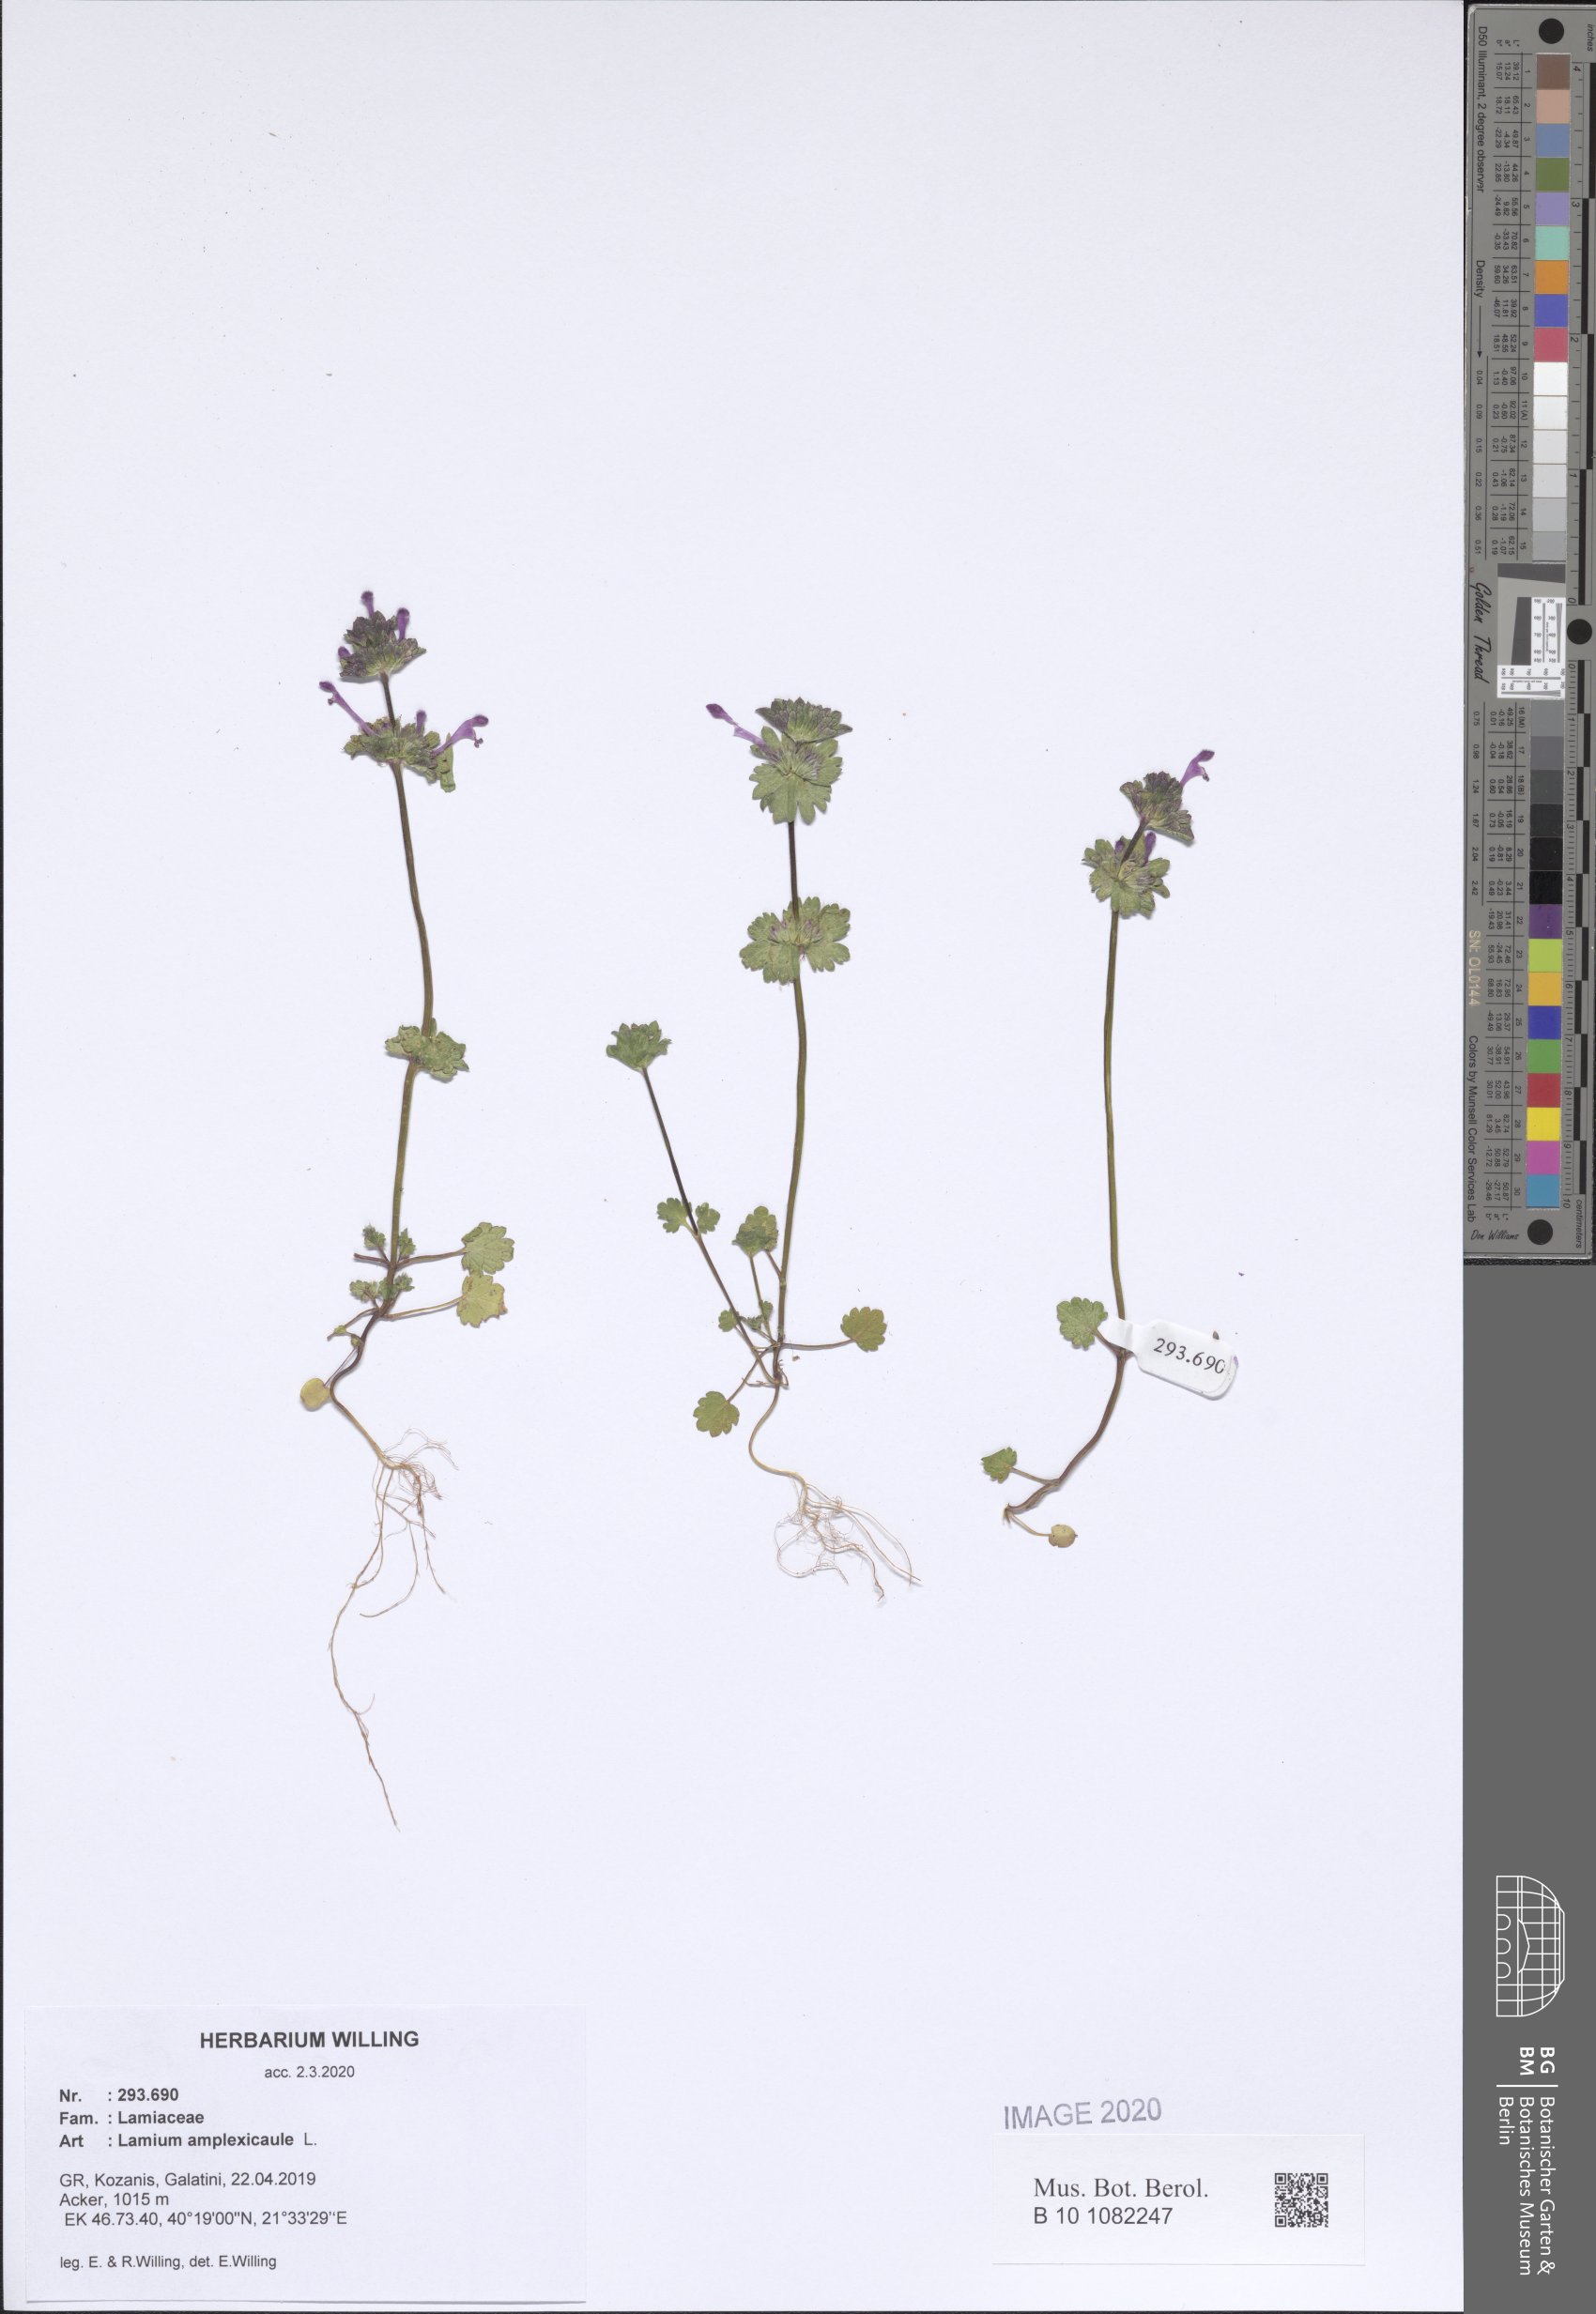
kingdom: Plantae
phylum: Tracheophyta
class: Magnoliopsida
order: Lamiales
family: Lamiaceae
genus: Lamium
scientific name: Lamium amplexicaule
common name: Henbit dead-nettle
